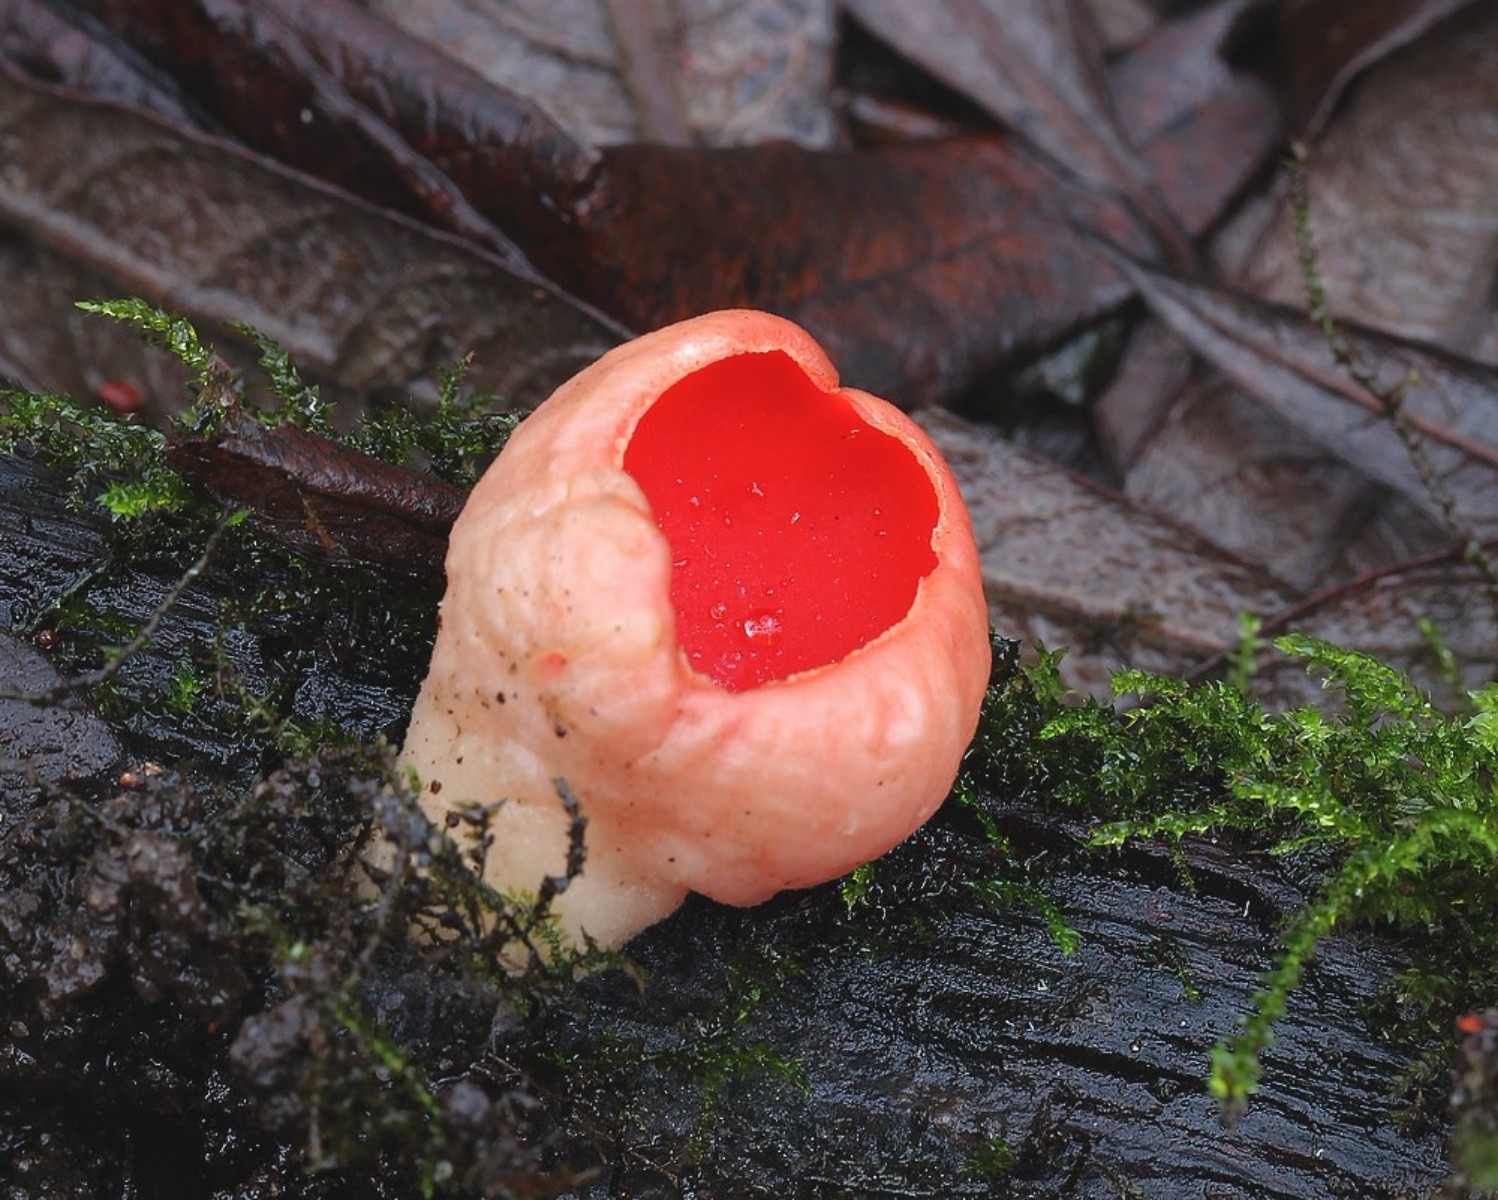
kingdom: Fungi
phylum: Ascomycota
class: Pezizomycetes
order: Pezizales
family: Sarcoscyphaceae
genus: Sarcoscypha
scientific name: Sarcoscypha austriaca
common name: krølhåret pragtbæger
